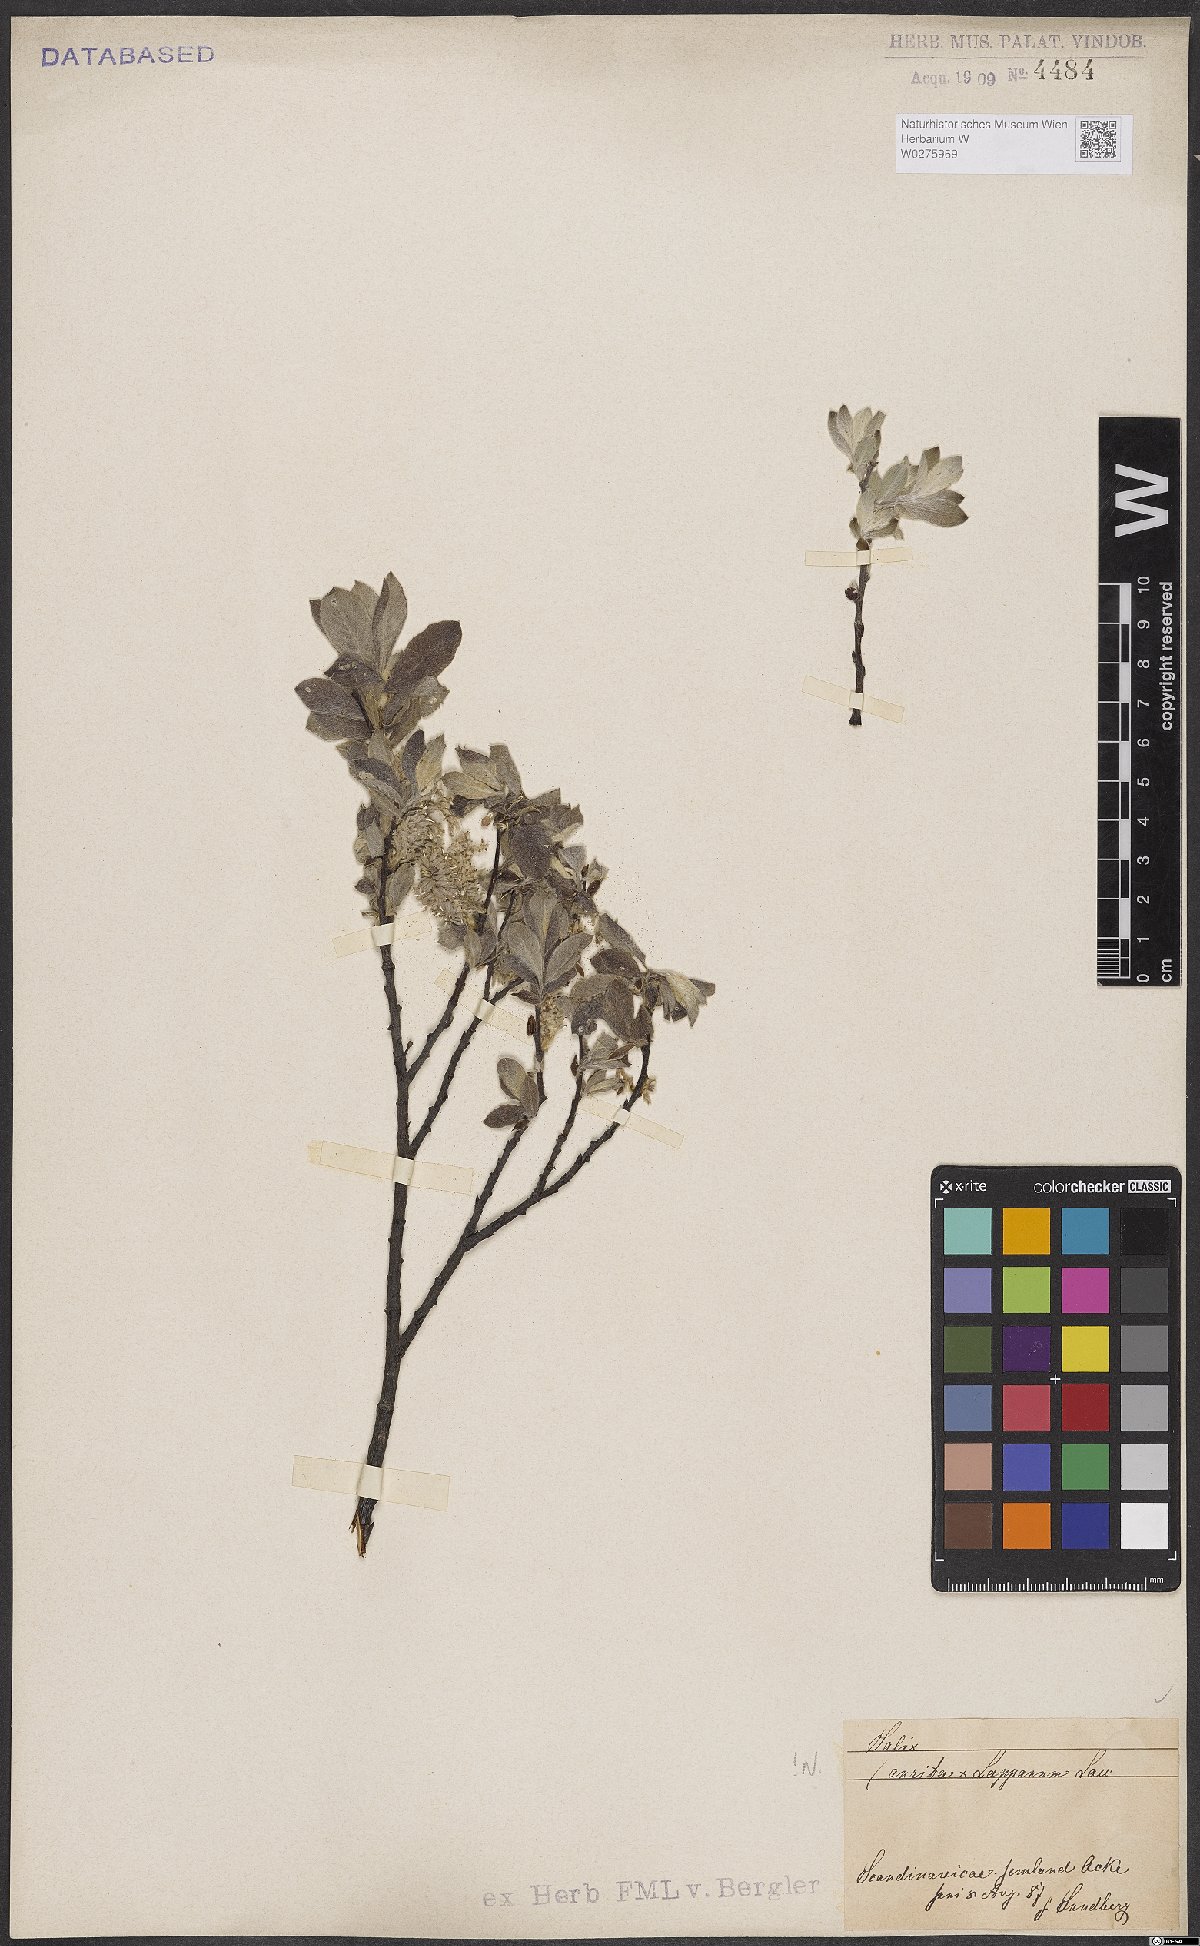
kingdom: Plantae
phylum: Tracheophyta
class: Magnoliopsida
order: Malpighiales
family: Salicaceae
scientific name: Salicaceae
